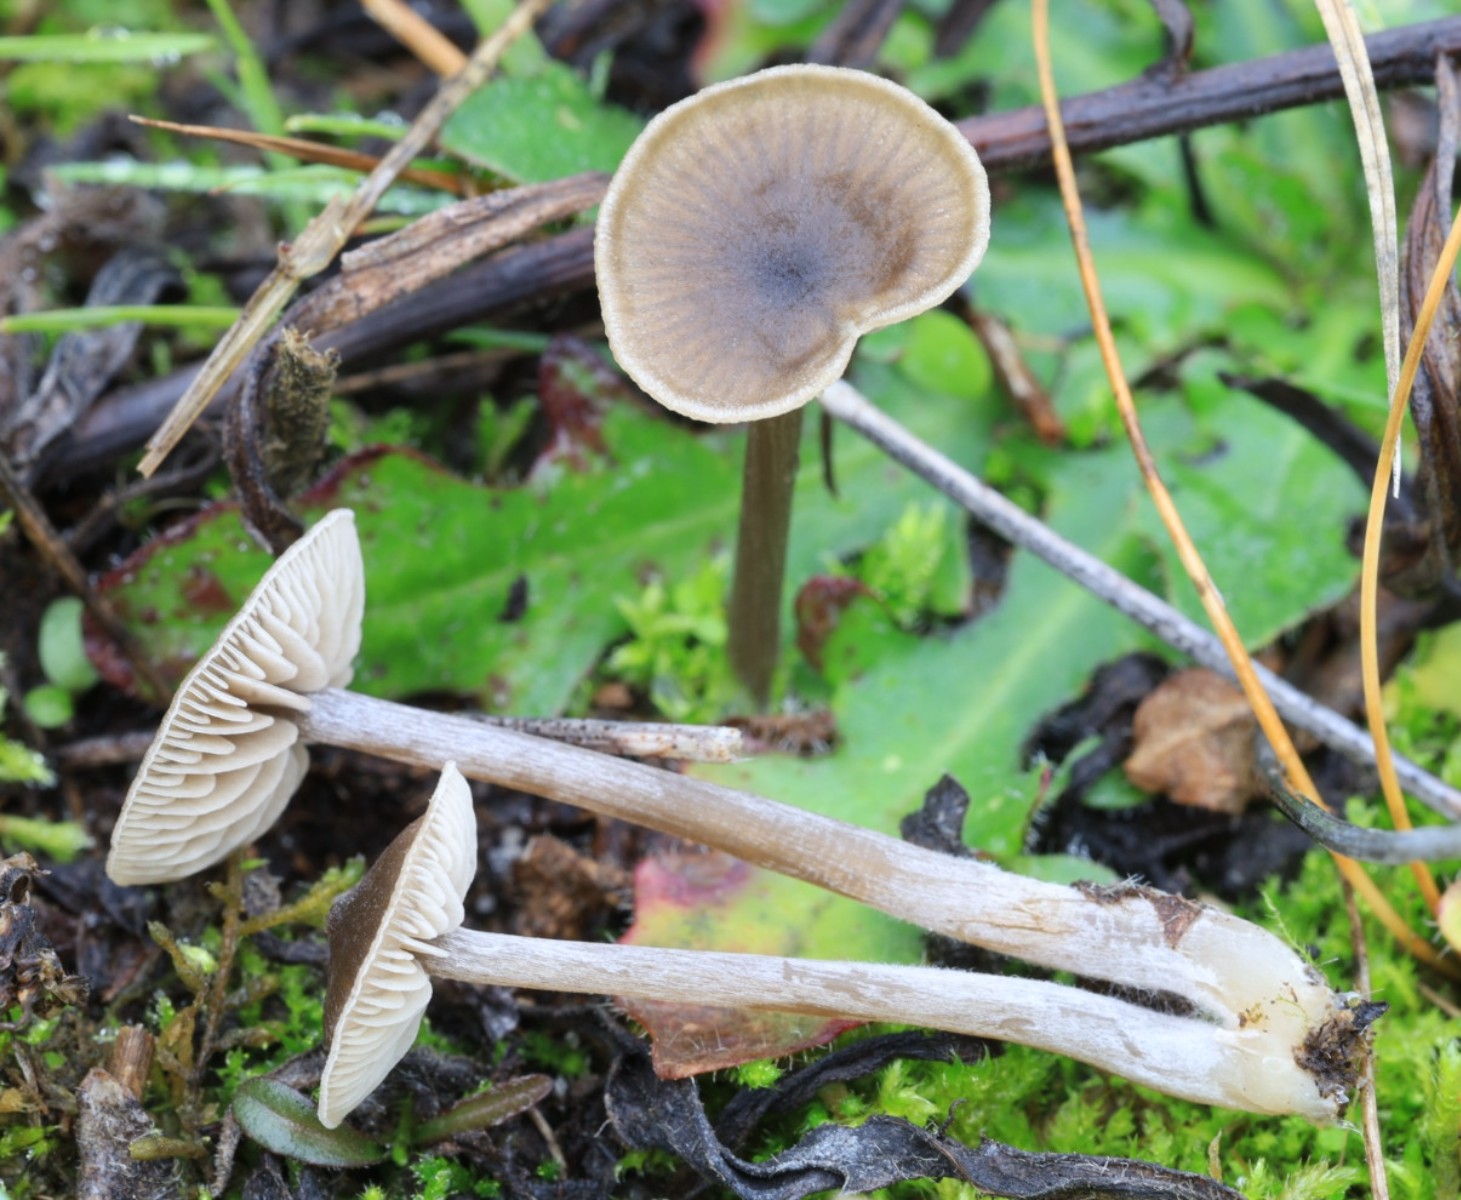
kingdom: Fungi
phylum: Basidiomycota
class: Agaricomycetes
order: Agaricales
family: Entolomataceae
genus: Entoloma
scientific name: Entoloma
